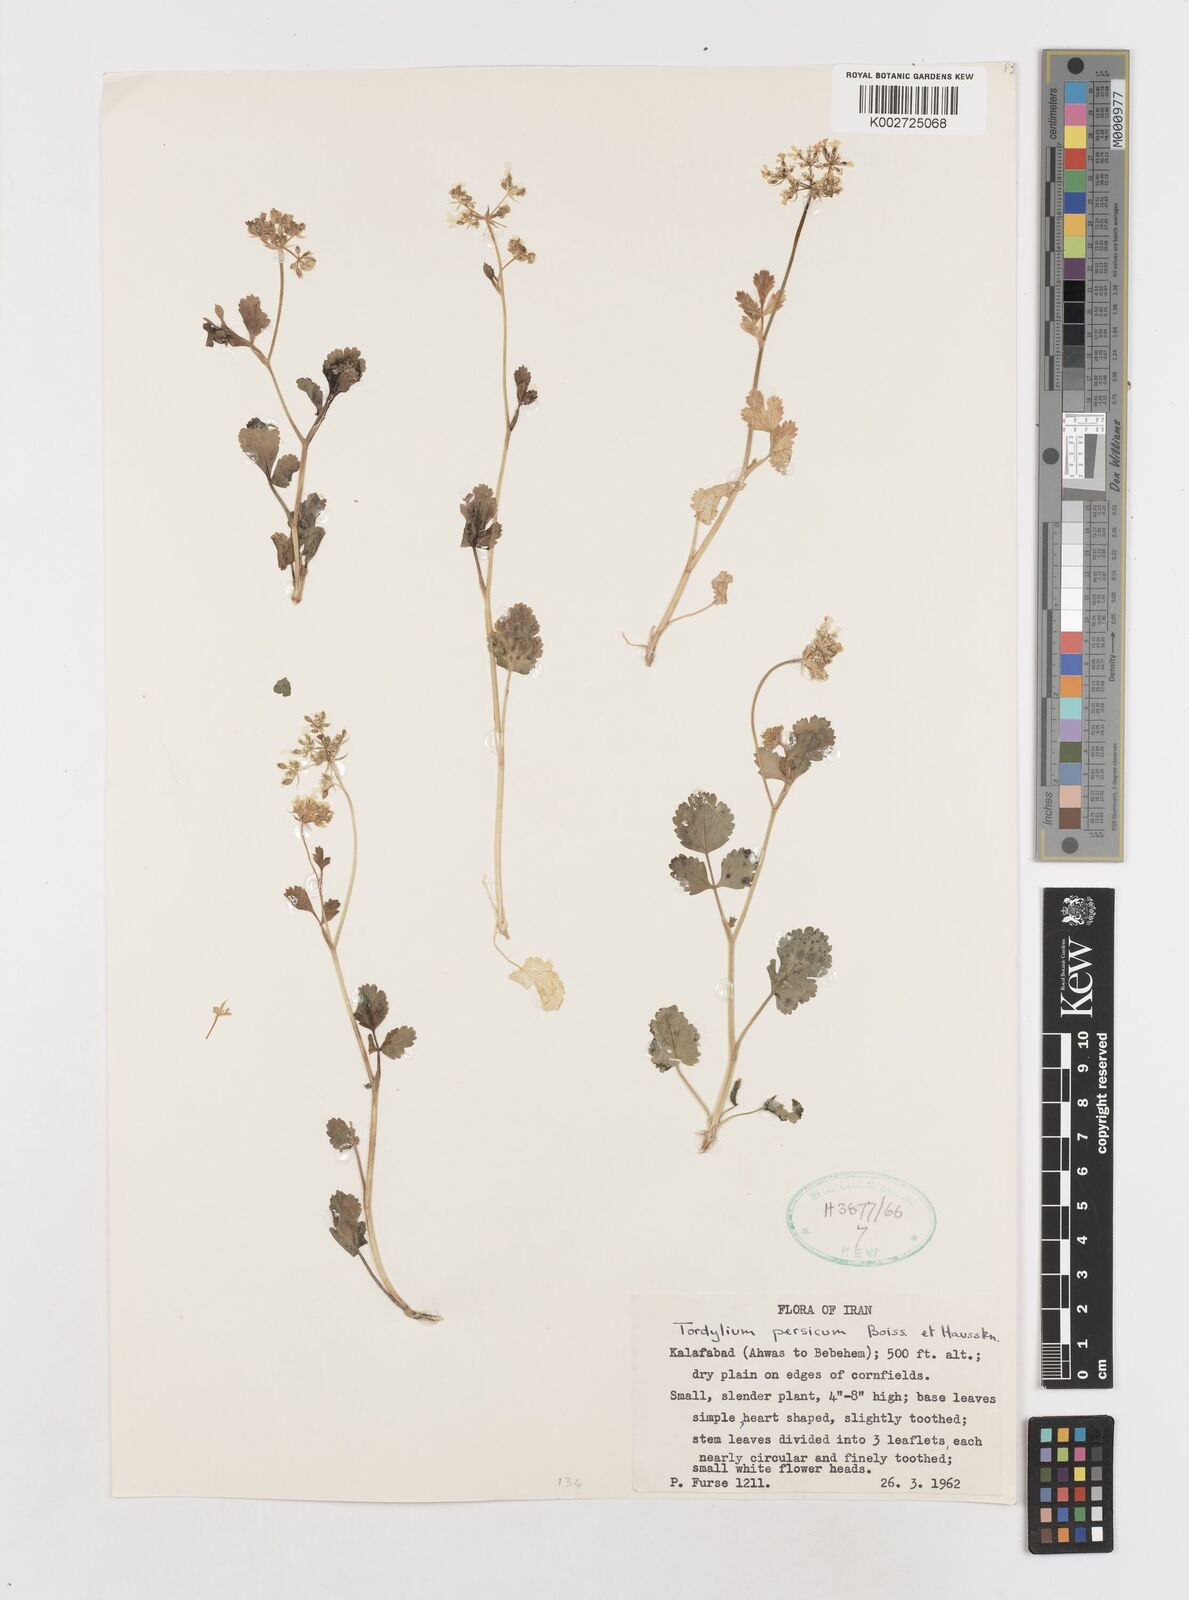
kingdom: Plantae
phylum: Tracheophyta
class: Magnoliopsida
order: Apiales
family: Apiaceae
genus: Tordylium
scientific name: Tordylium cappadocicum
